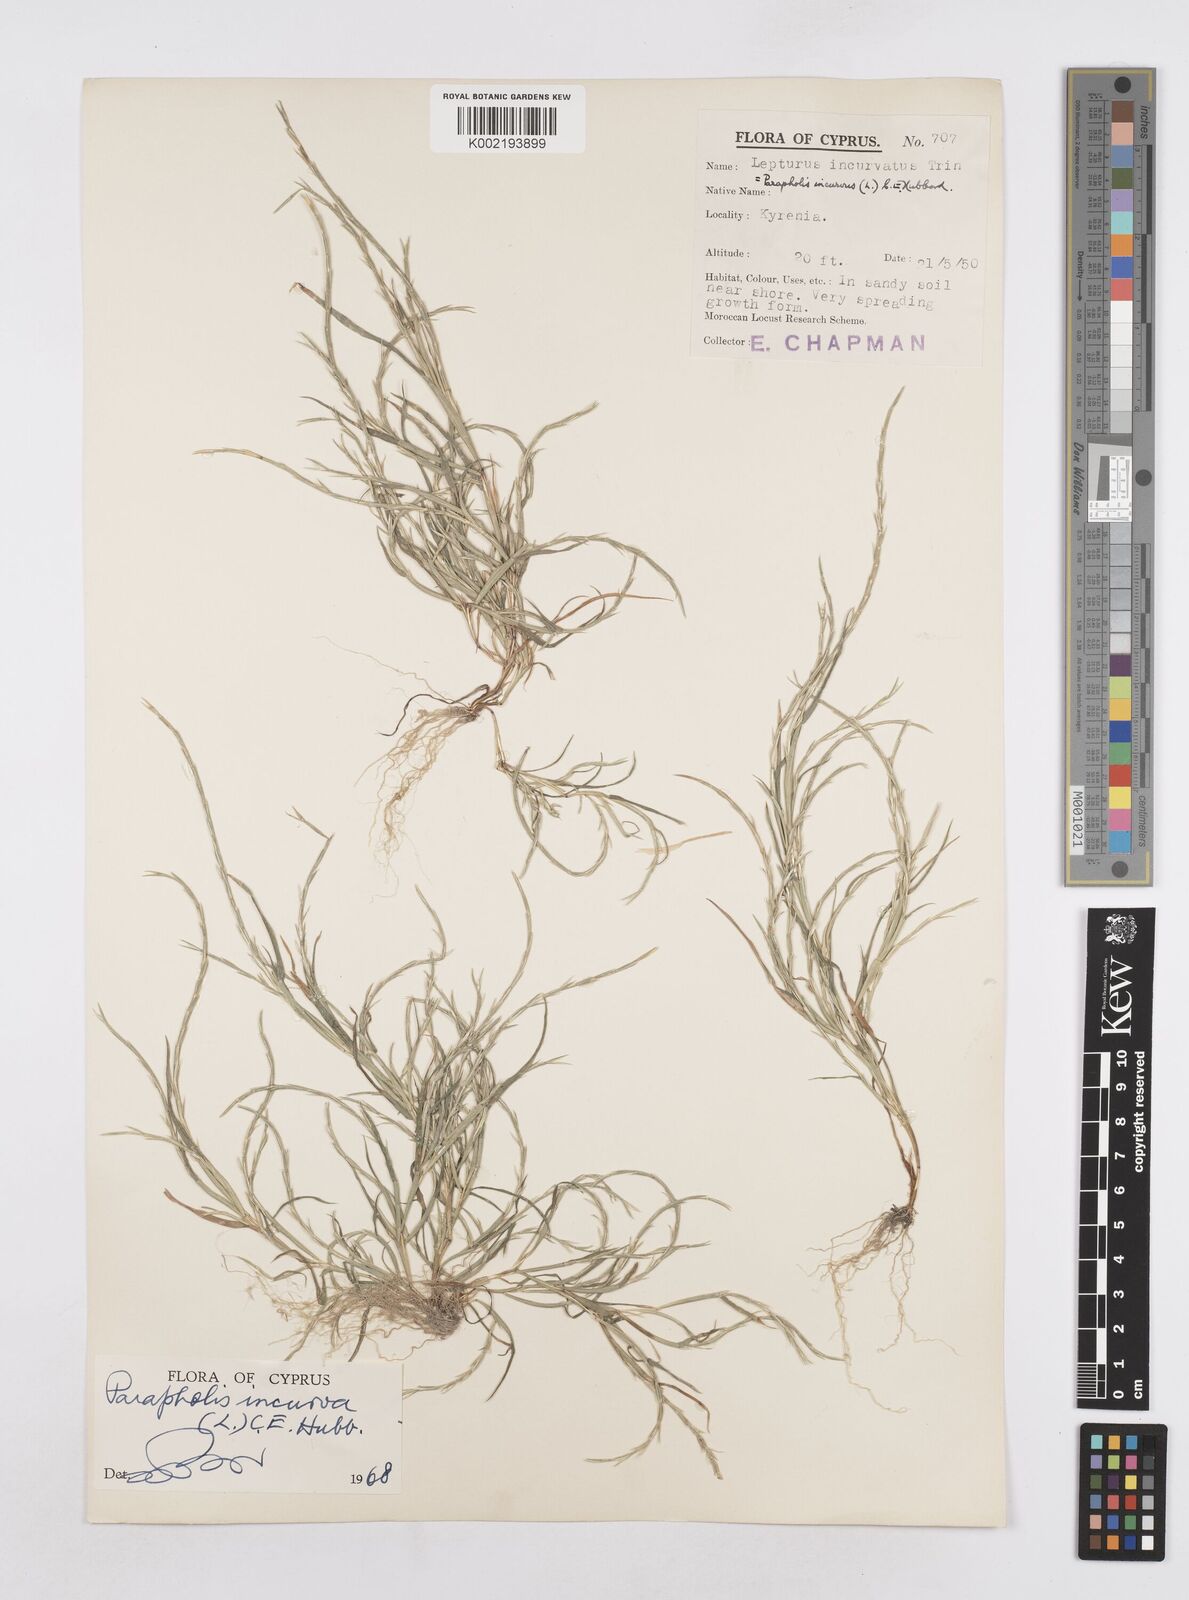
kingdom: Plantae
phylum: Tracheophyta
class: Liliopsida
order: Poales
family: Poaceae
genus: Parapholis
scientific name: Parapholis incurva
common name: Curved sicklegrass
